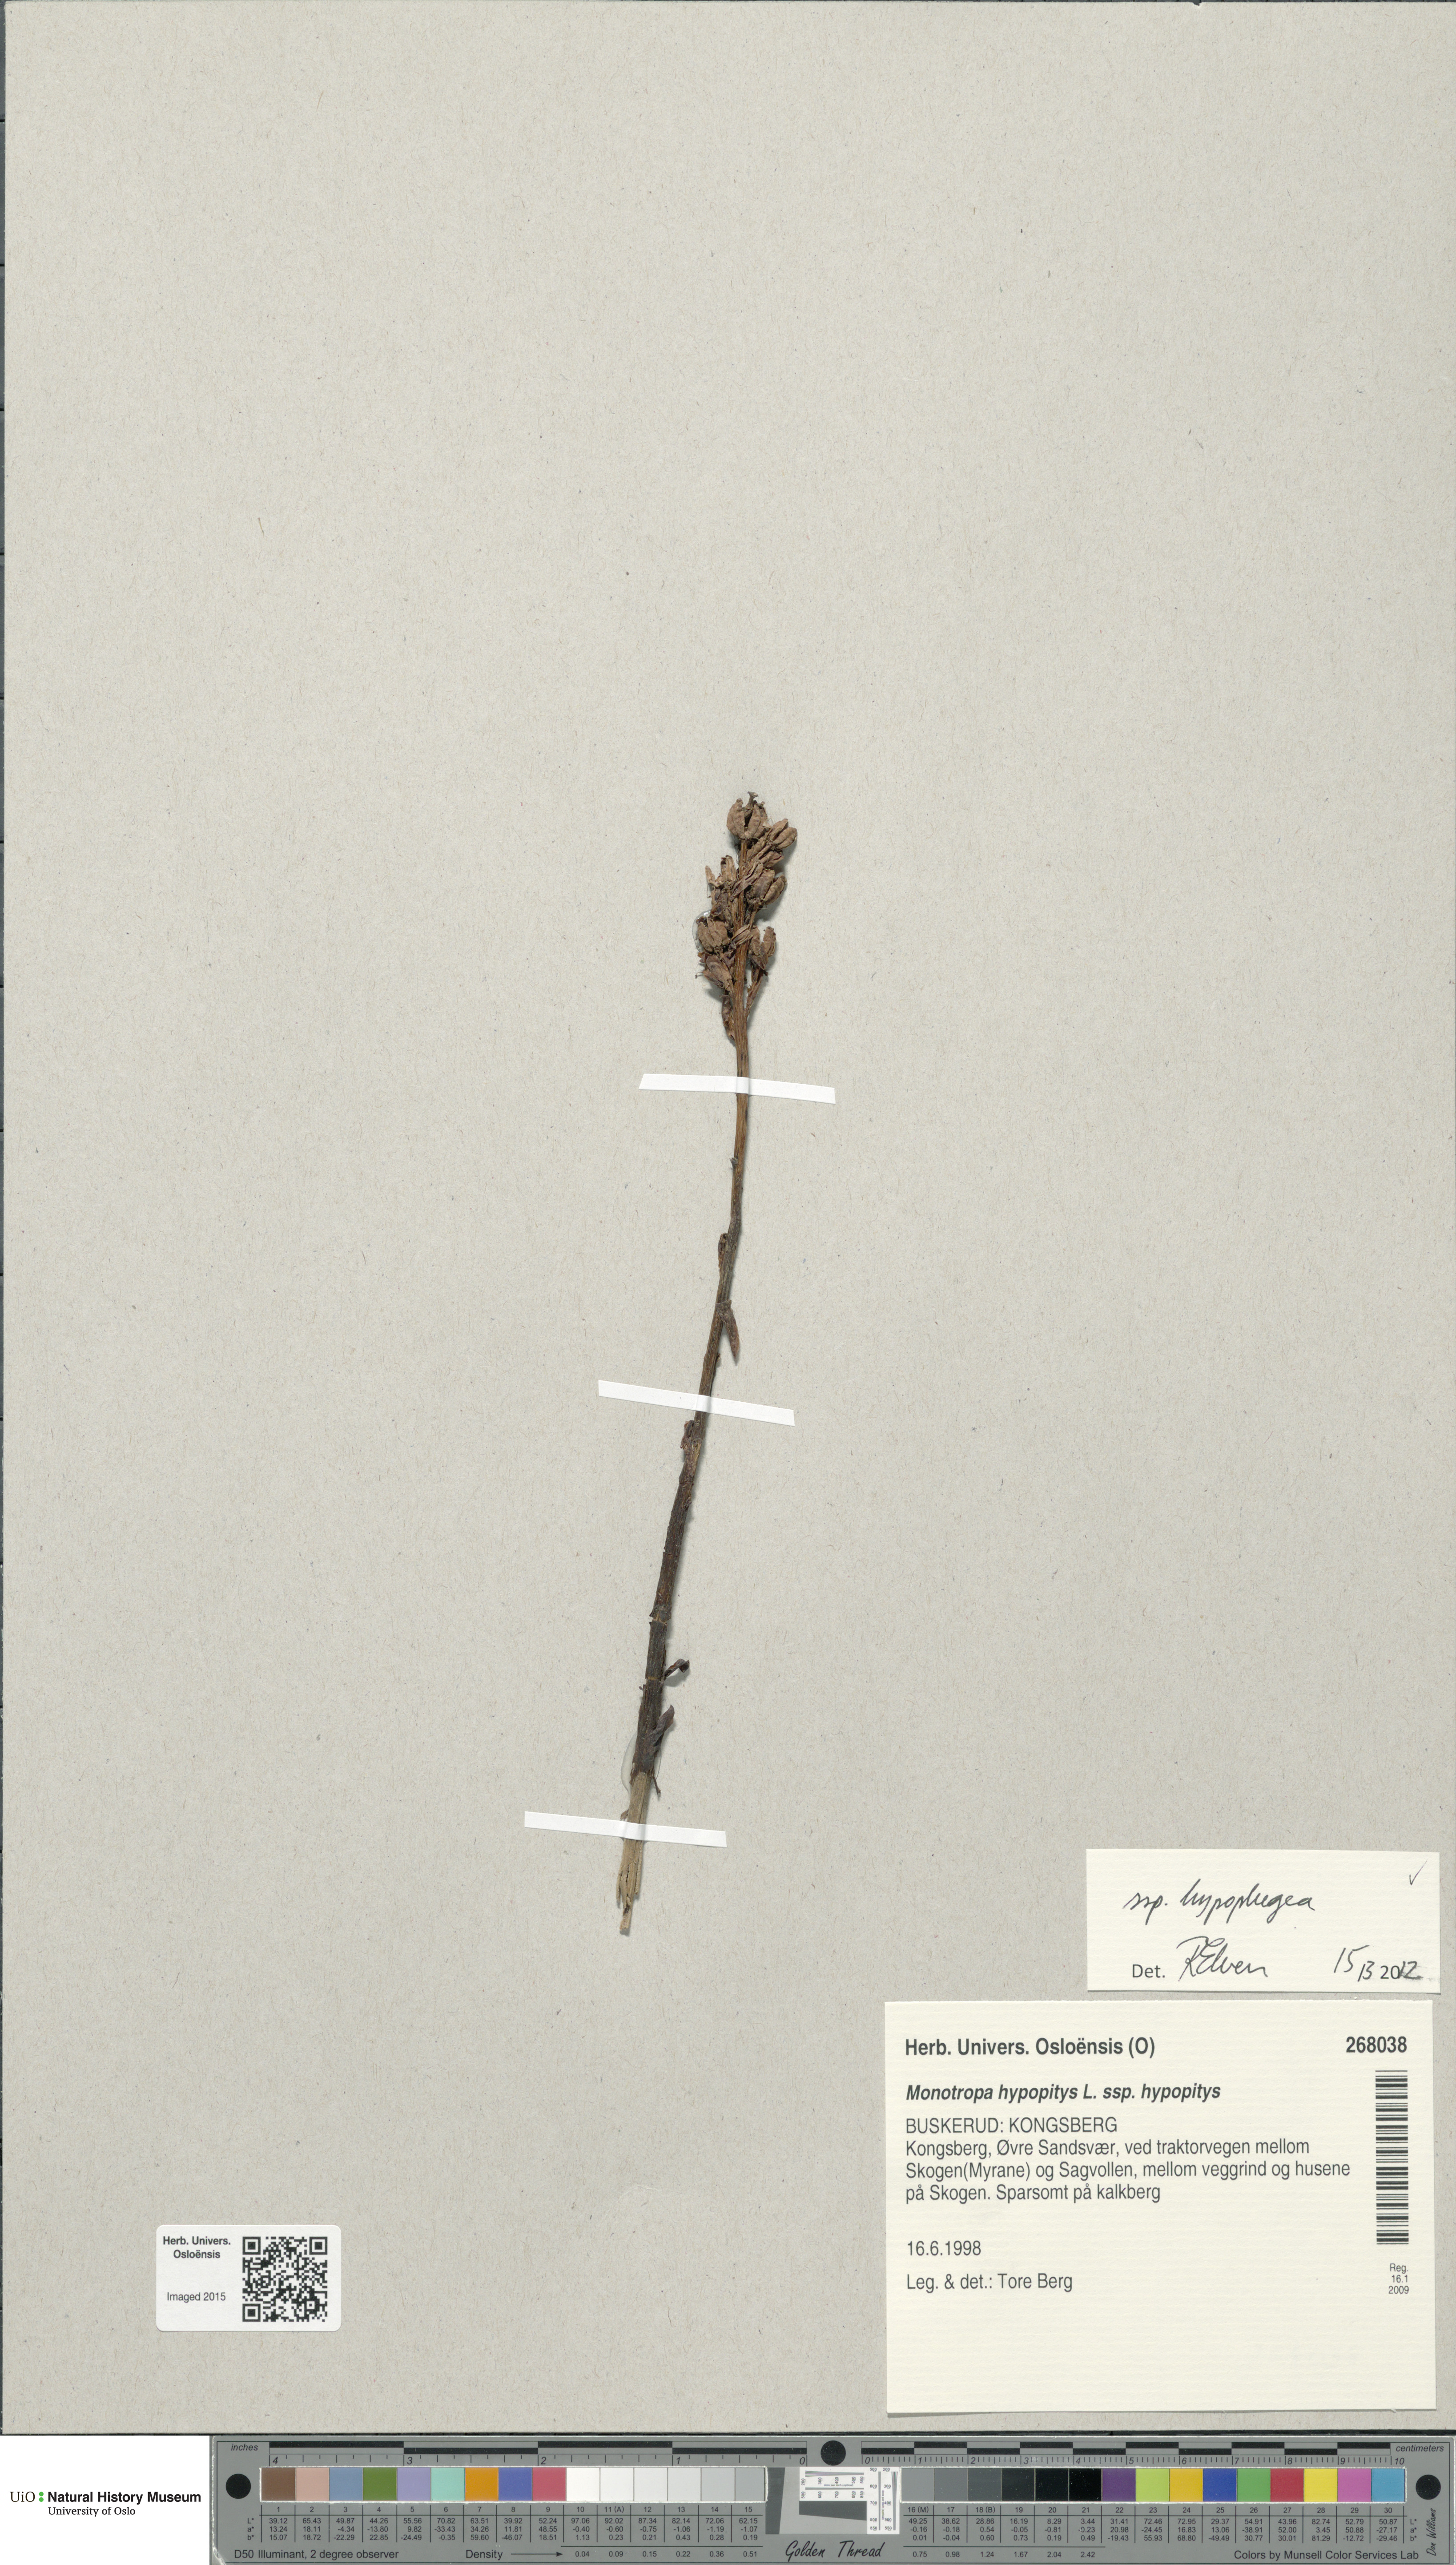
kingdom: Plantae
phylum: Tracheophyta
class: Magnoliopsida
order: Ericales
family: Ericaceae
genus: Hypopitys
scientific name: Hypopitys hypophegea
